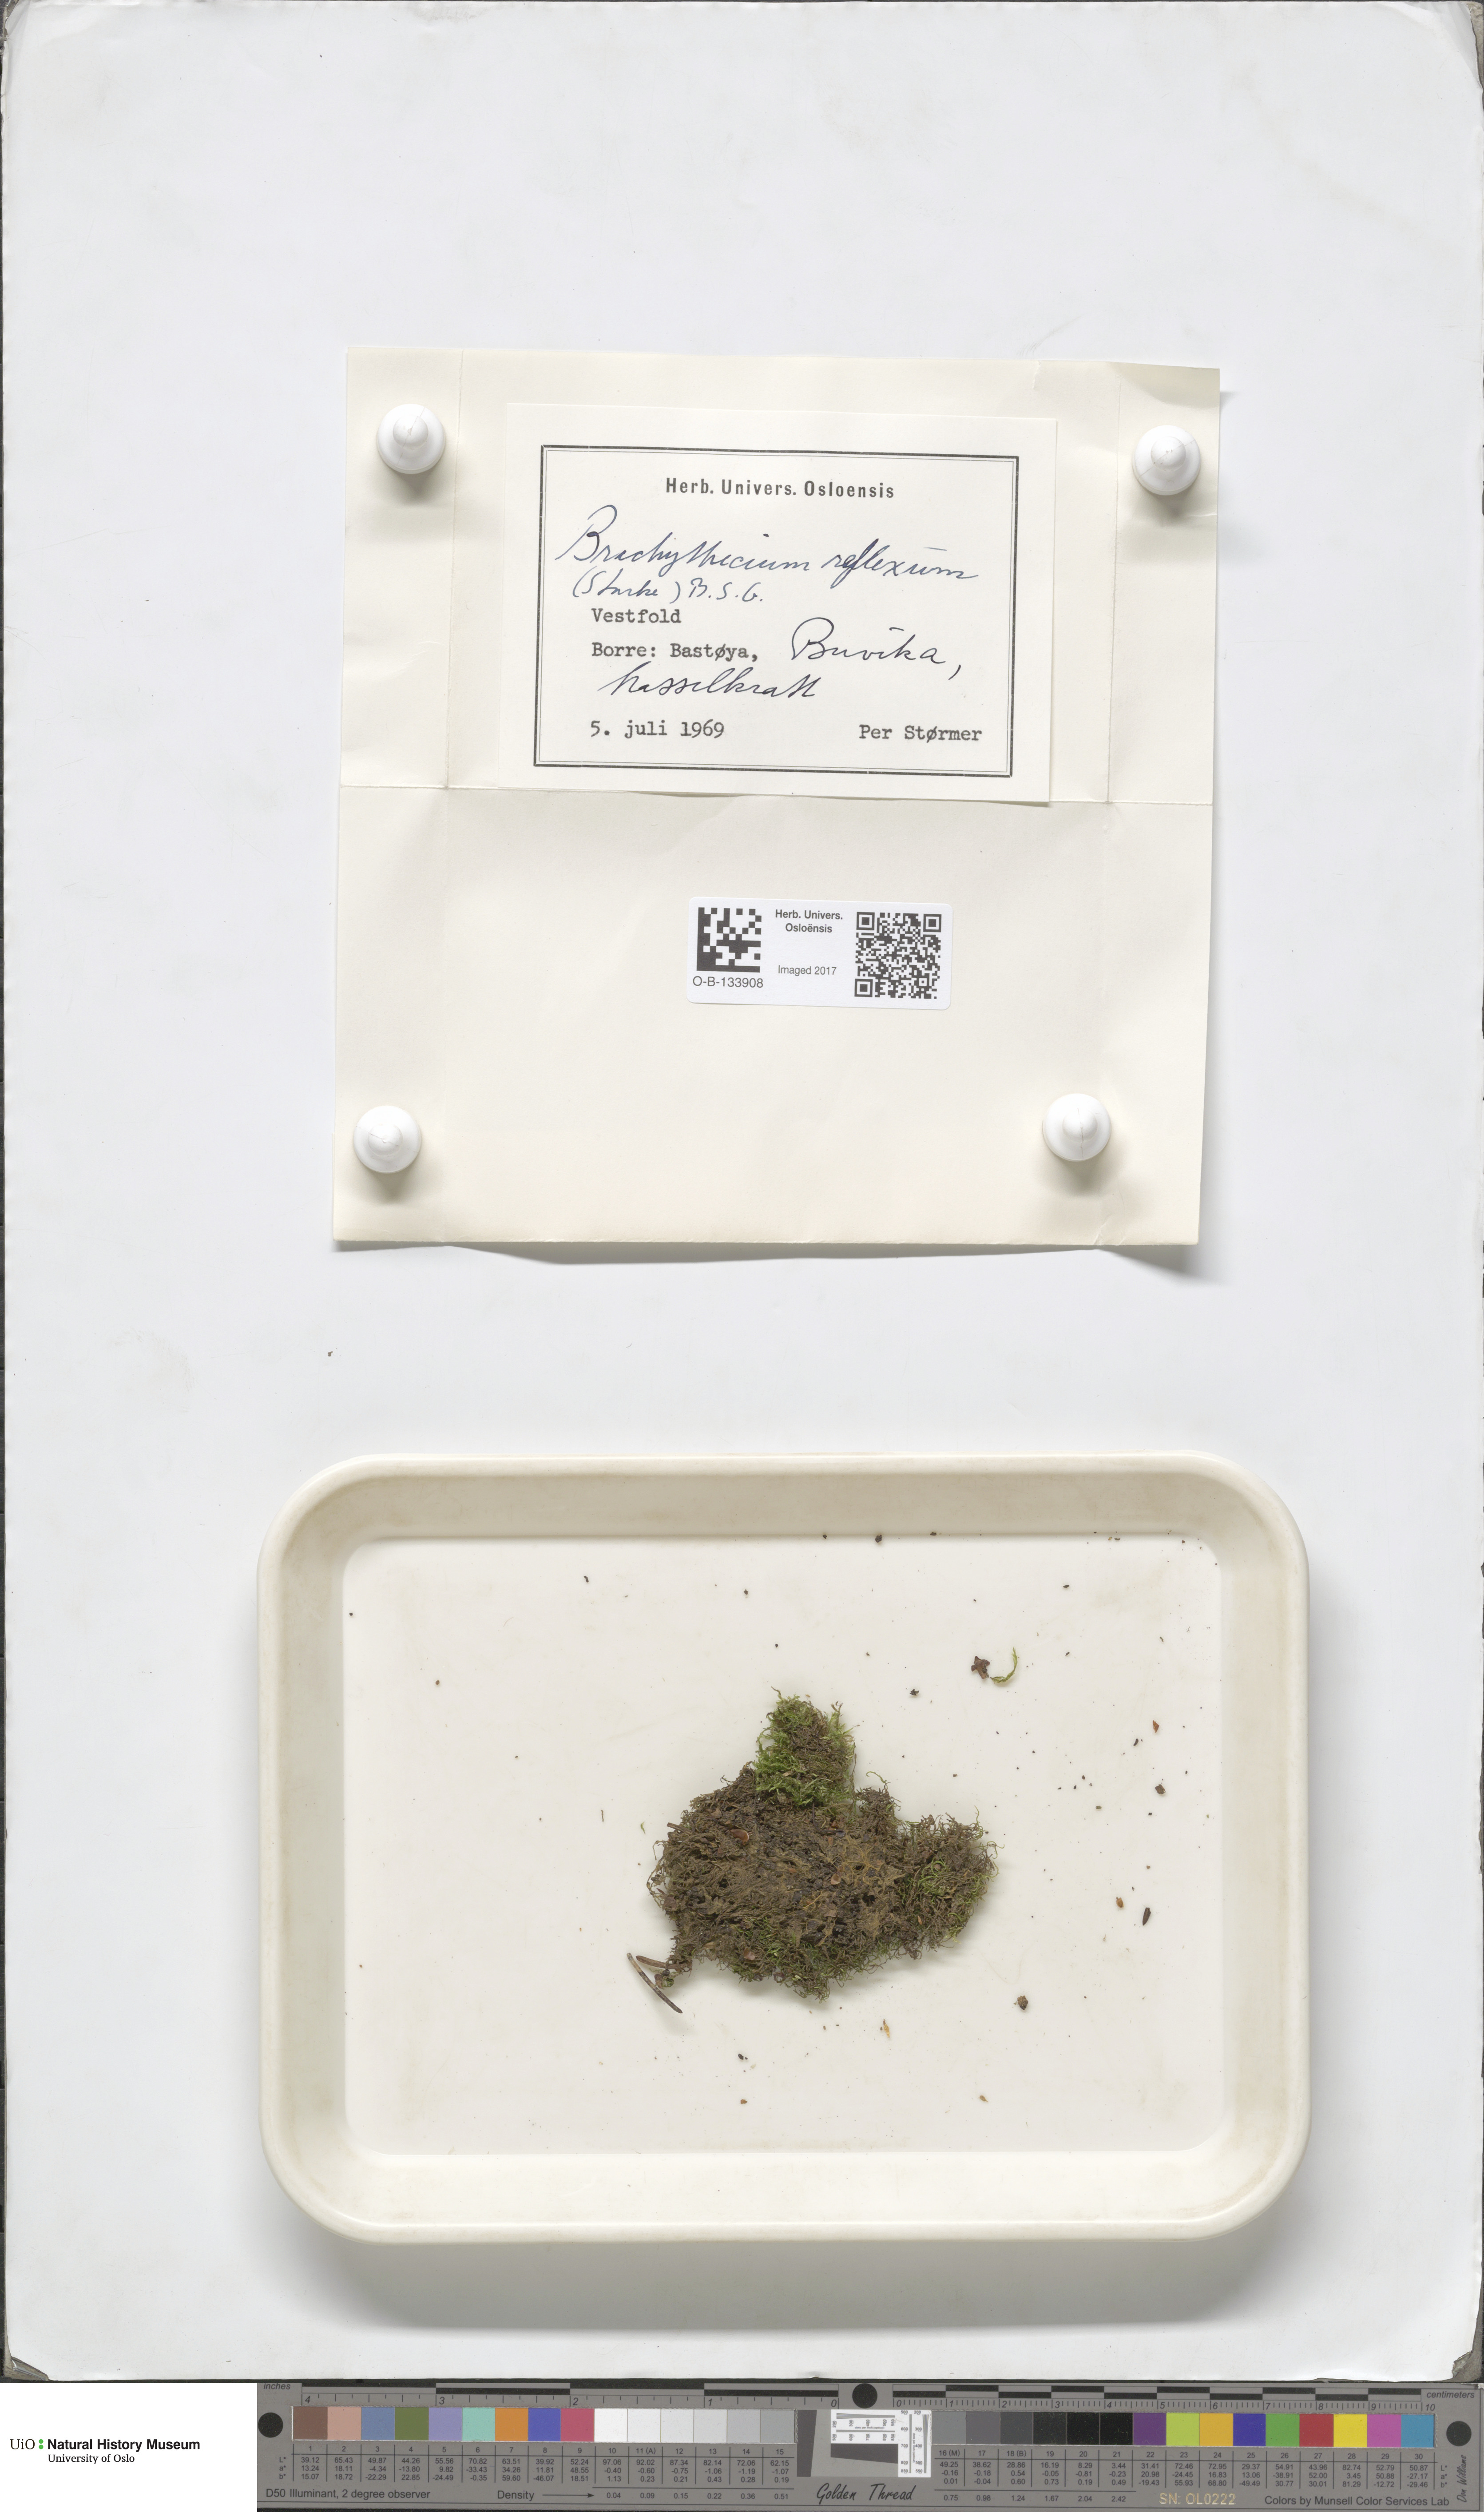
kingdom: Plantae
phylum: Bryophyta
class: Bryopsida
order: Hypnales
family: Brachytheciaceae
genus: Sciuro-hypnum
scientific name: Sciuro-hypnum reflexum
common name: Reflexed feather-moss
